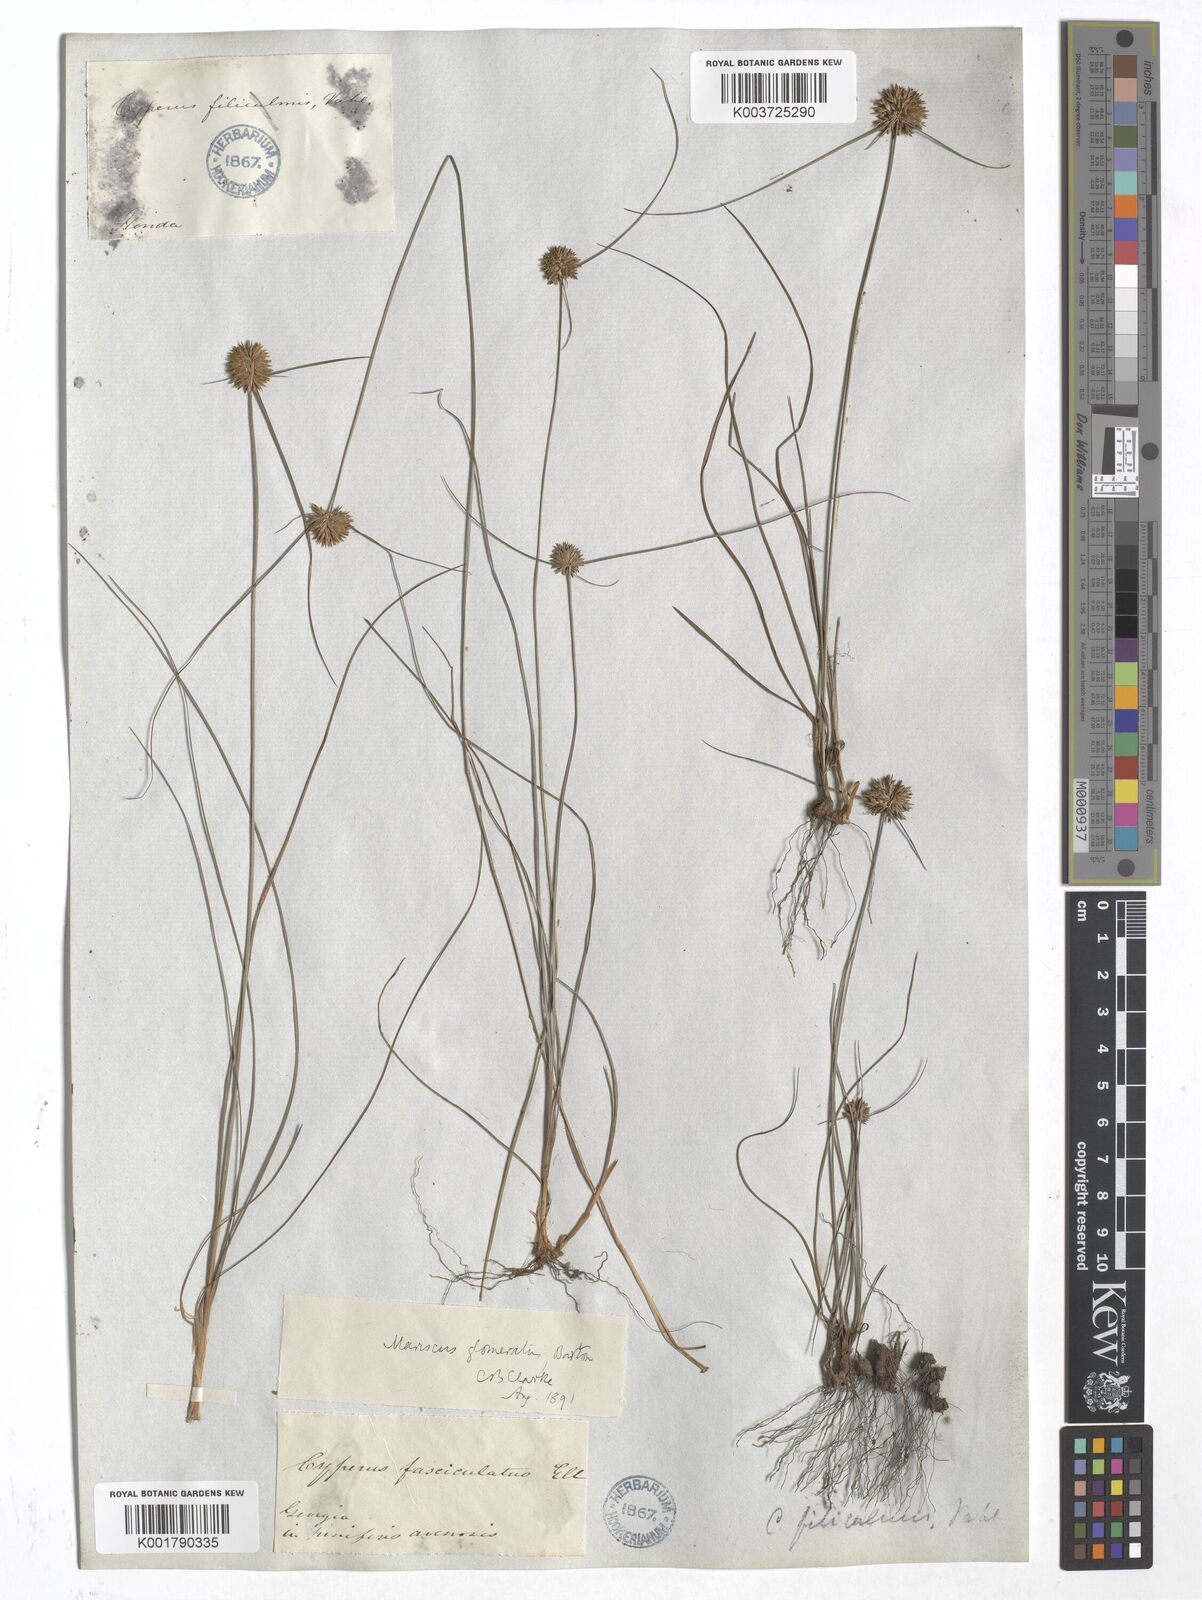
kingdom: Plantae
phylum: Tracheophyta
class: Liliopsida
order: Poales
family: Cyperaceae
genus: Cyperus
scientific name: Cyperus lupulinus
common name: Great plains flatsedge
